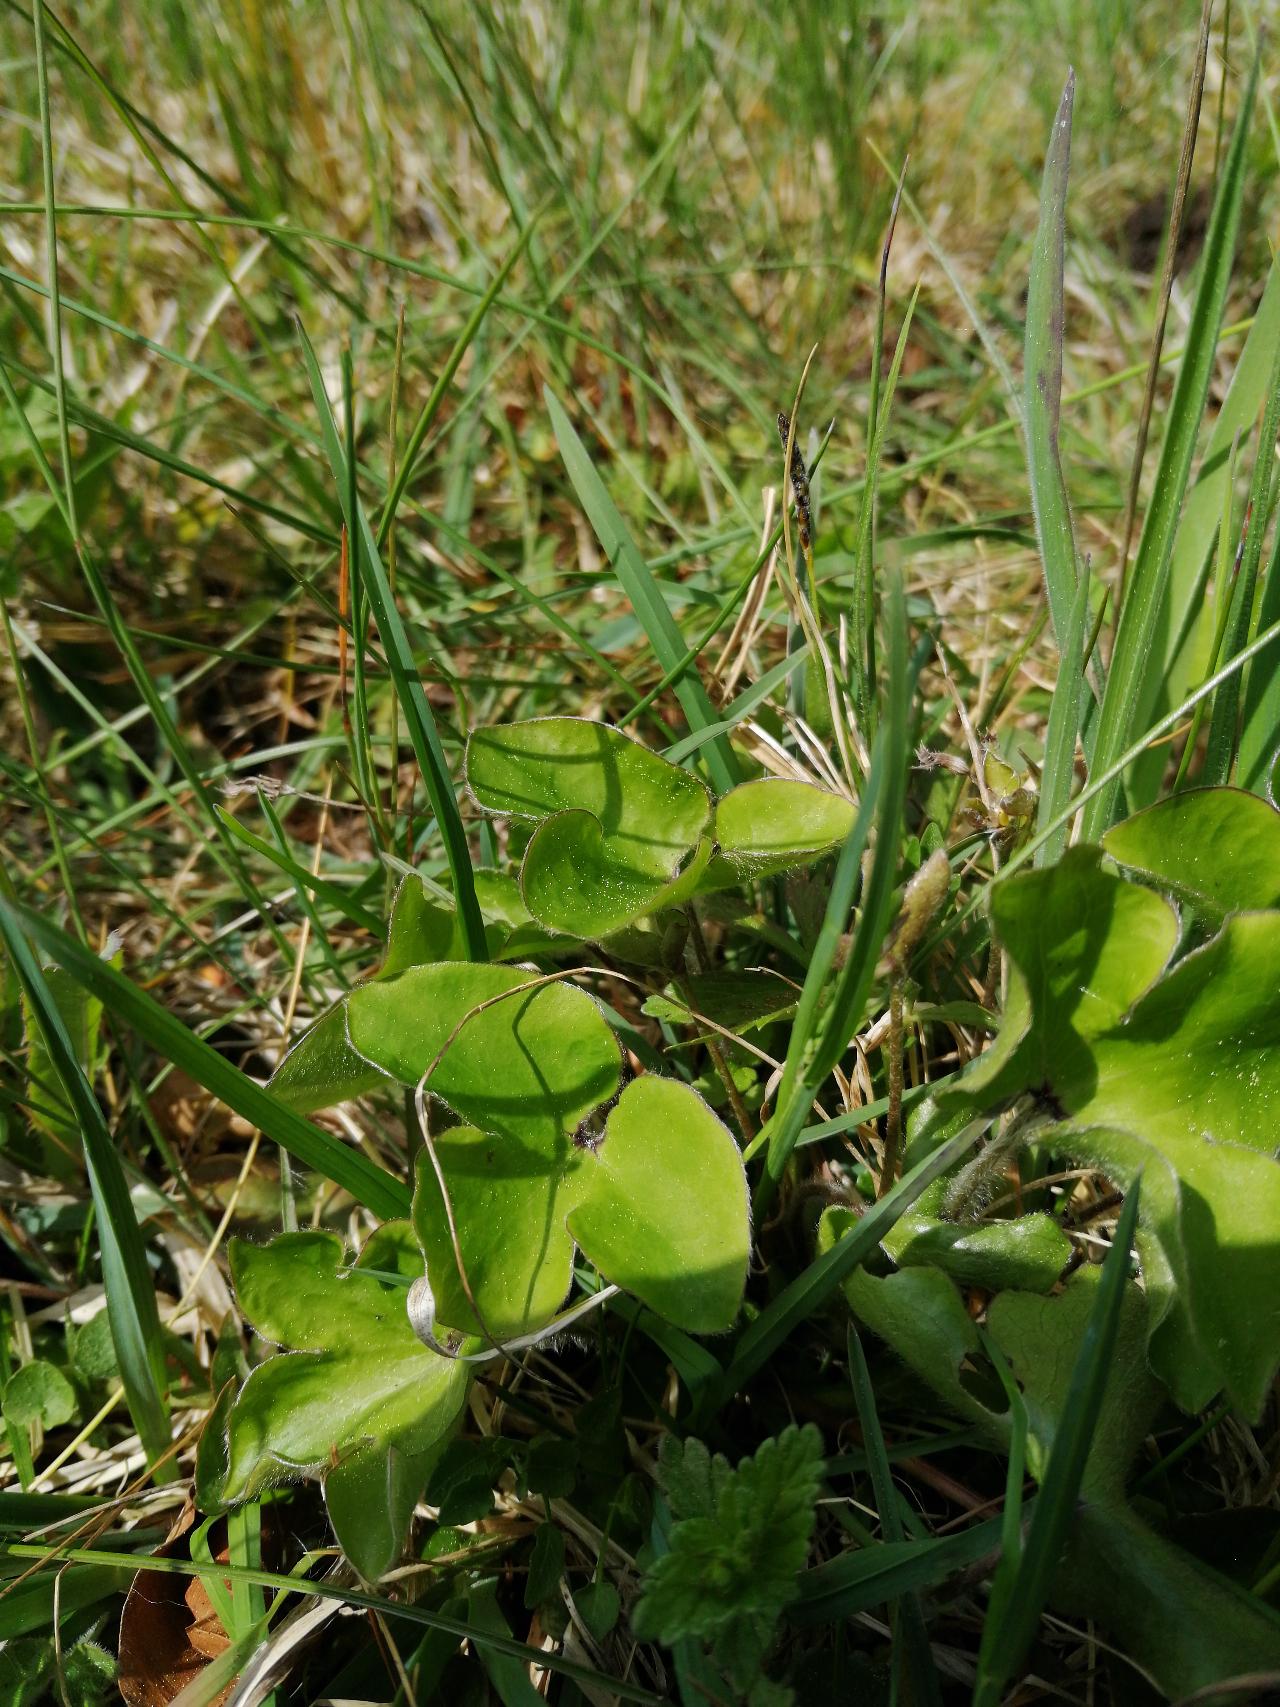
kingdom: Plantae
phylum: Tracheophyta
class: Magnoliopsida
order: Ranunculales
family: Ranunculaceae
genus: Hepatica
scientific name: Hepatica nobilis
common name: Blå anemone
